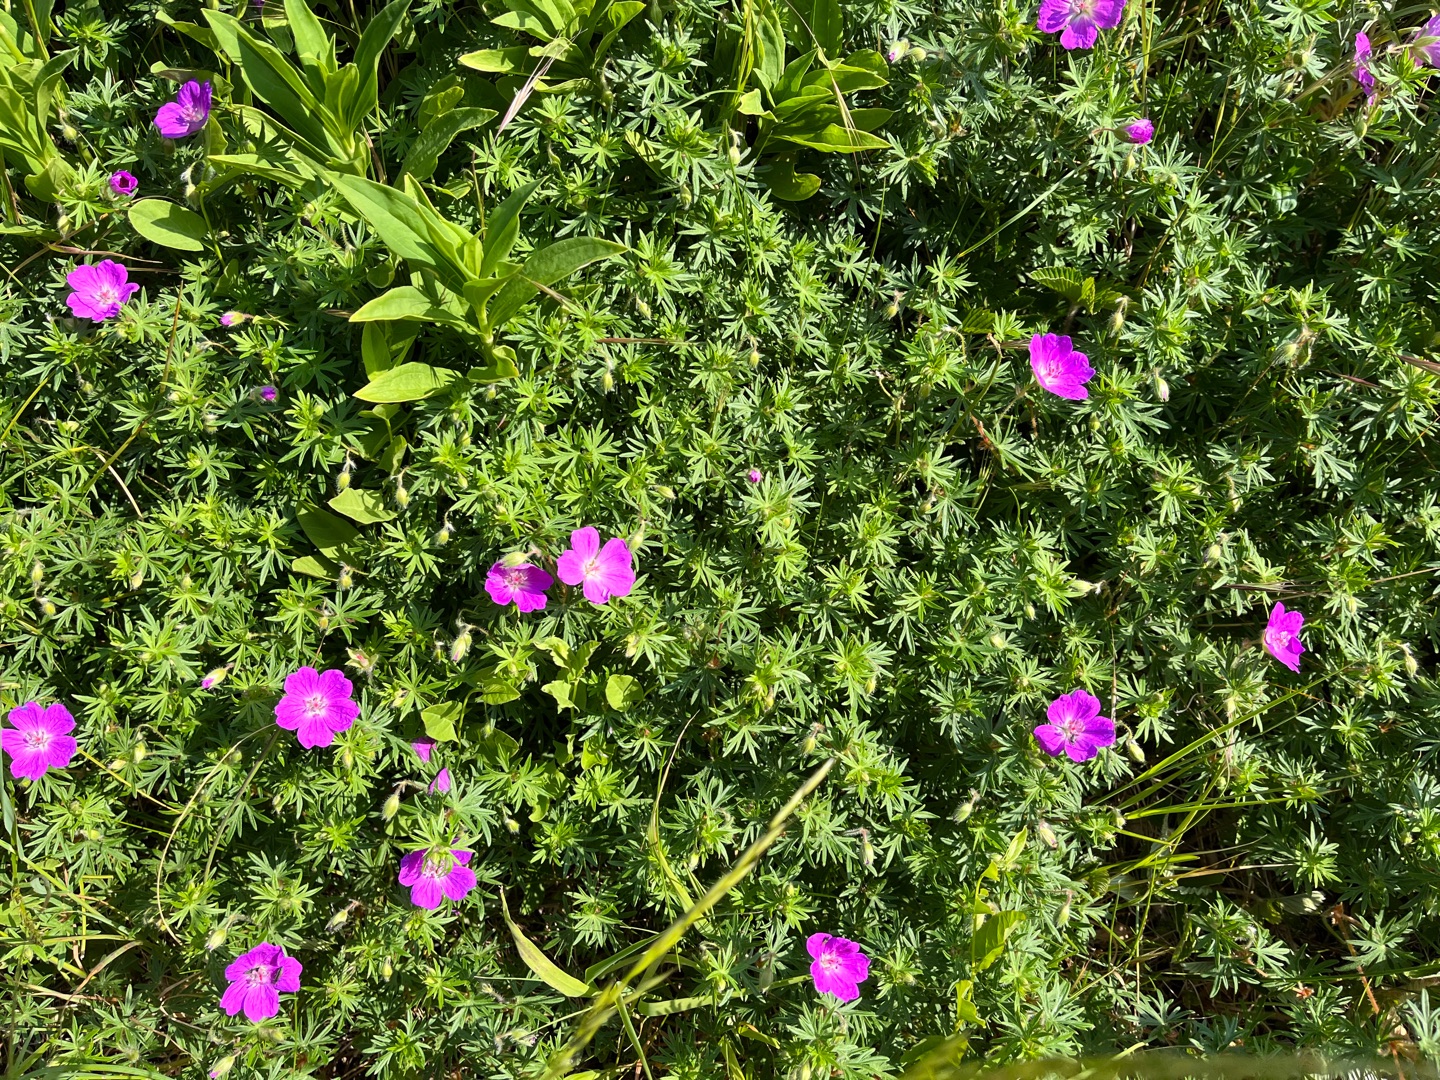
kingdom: Plantae
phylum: Tracheophyta
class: Magnoliopsida
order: Geraniales
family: Geraniaceae
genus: Geranium
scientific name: Geranium sanguineum
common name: Blodrød storkenæb
